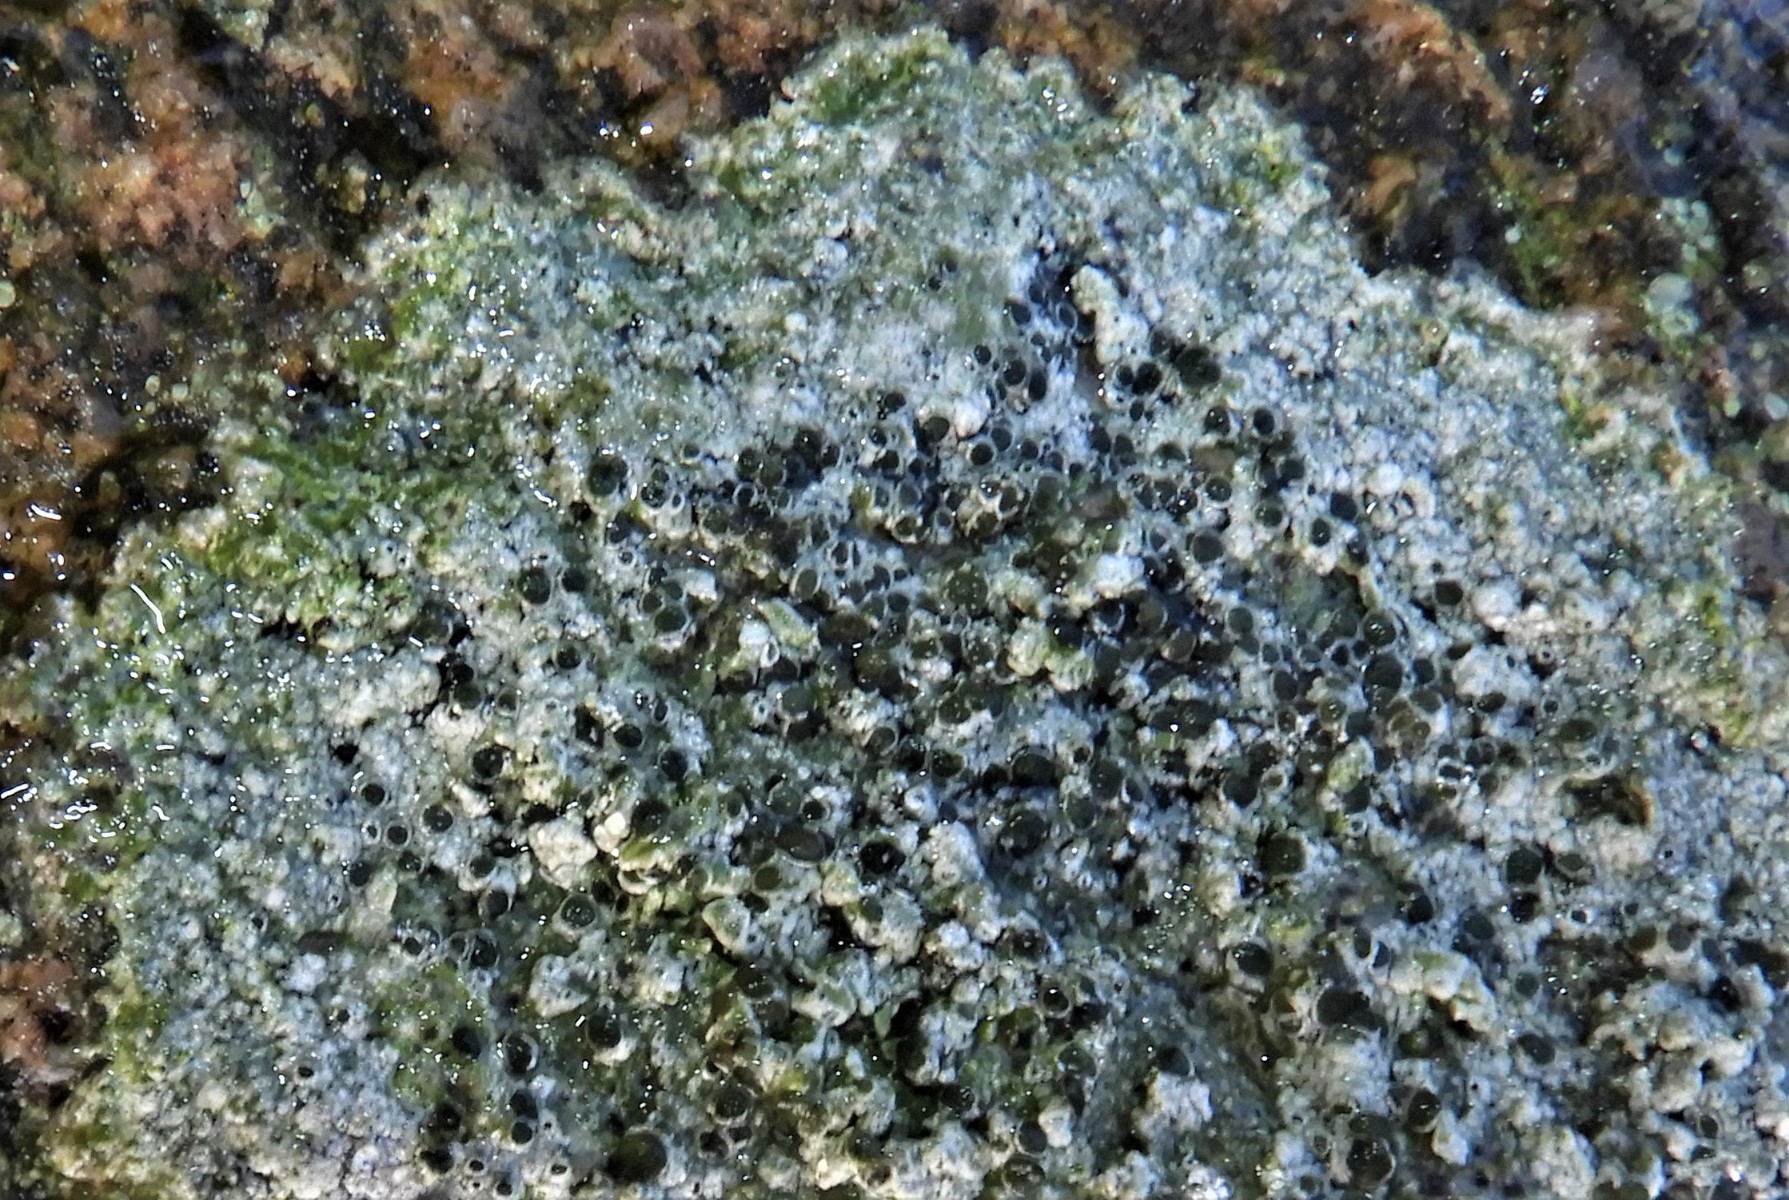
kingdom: Fungi
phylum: Ascomycota
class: Lecanoromycetes
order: Lecanorales
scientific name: Lecanorales
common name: skivelavordenen
